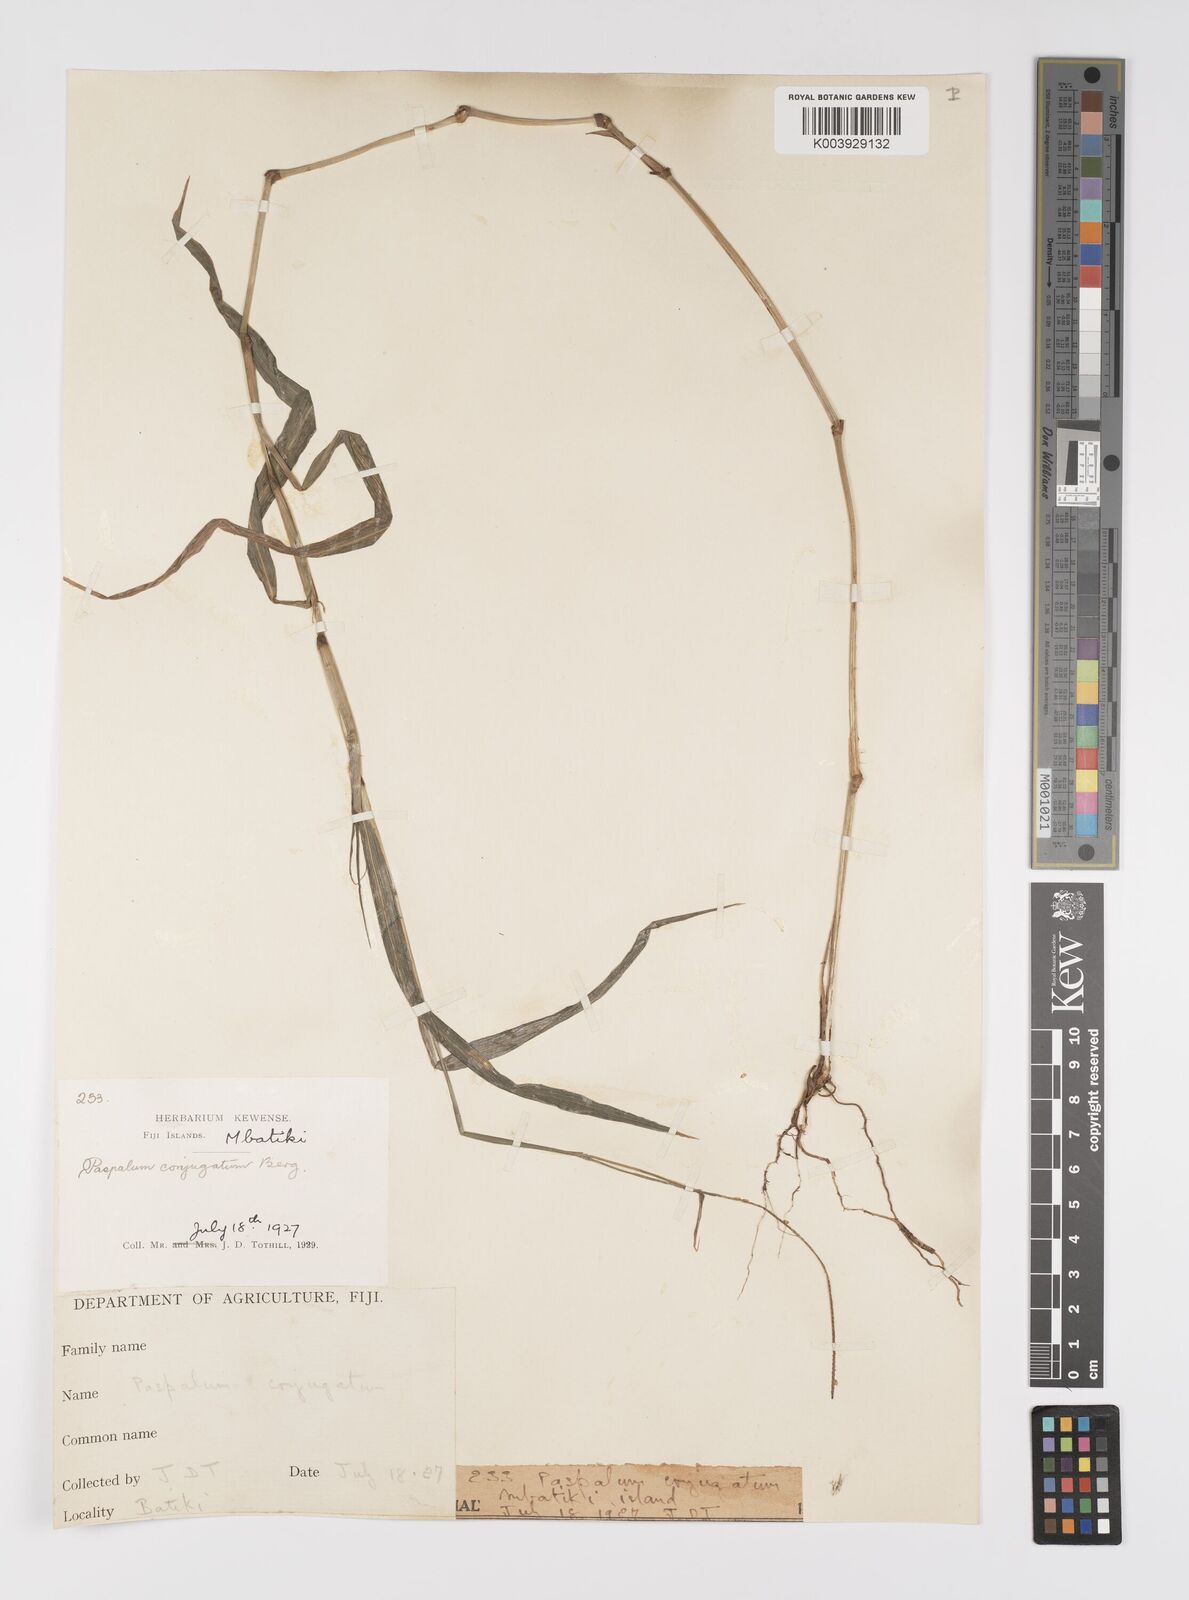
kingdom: Plantae
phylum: Tracheophyta
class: Liliopsida
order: Poales
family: Poaceae
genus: Paspalum
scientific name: Paspalum conjugatum
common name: Hilograss
